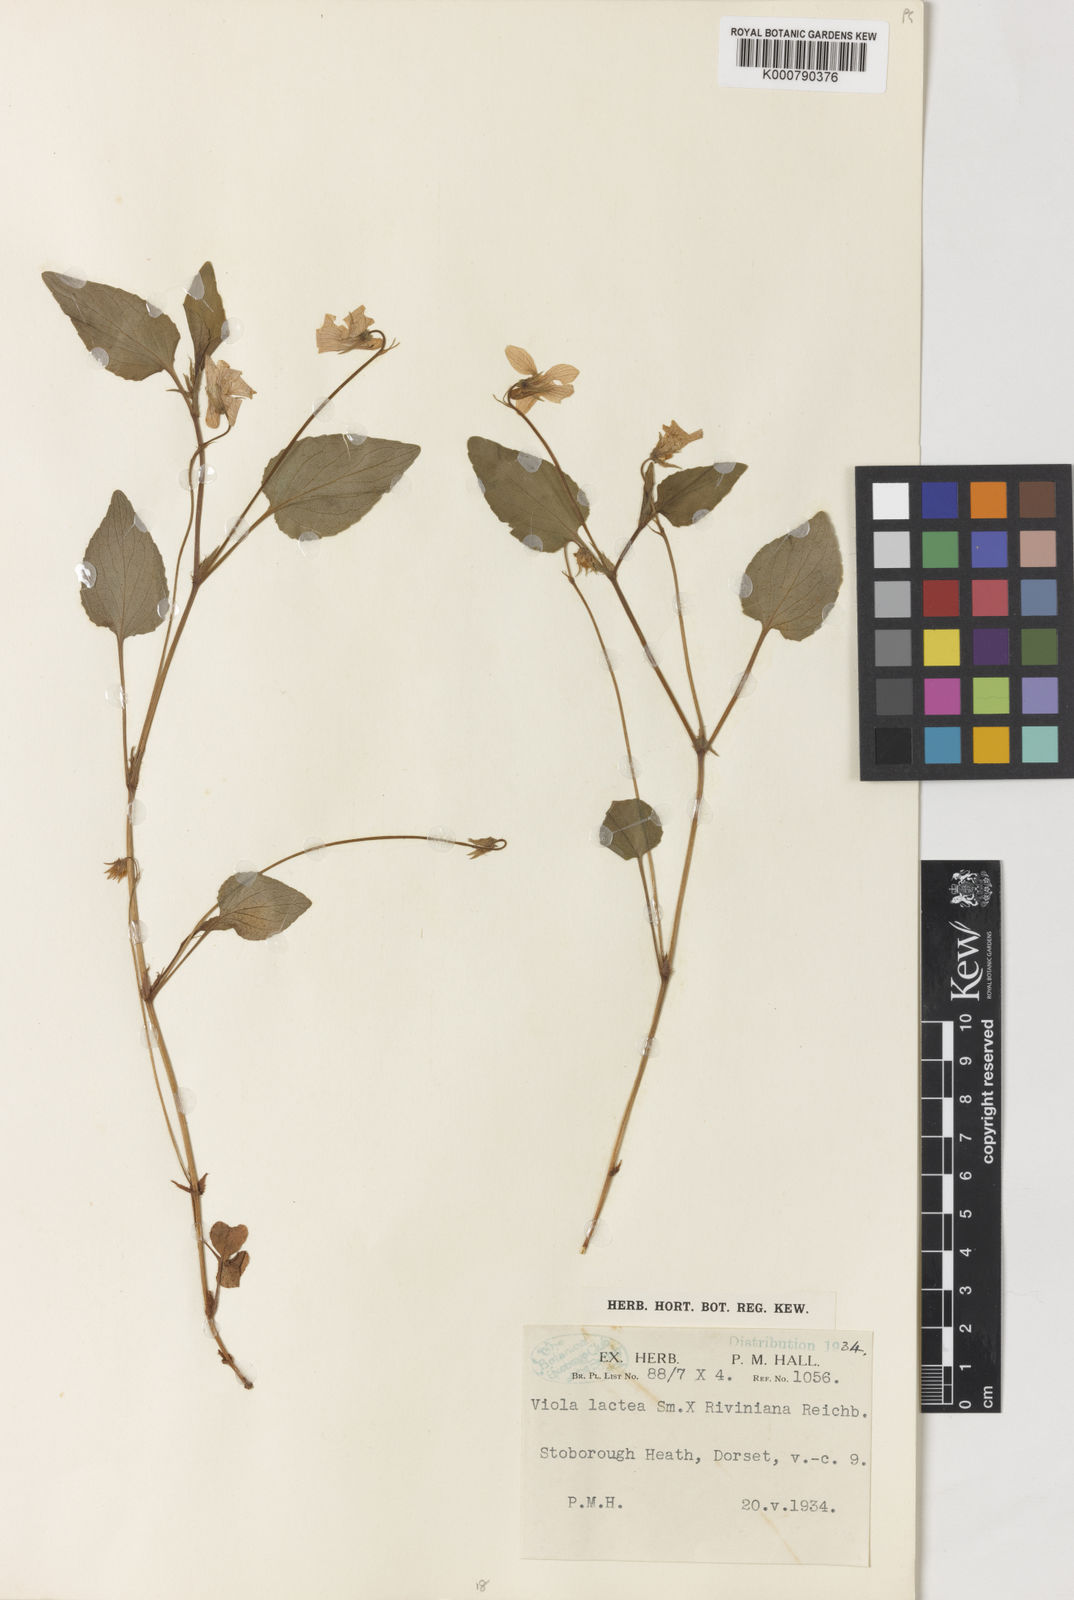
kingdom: Plantae
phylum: Tracheophyta
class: Magnoliopsida
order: Malpighiales
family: Violaceae
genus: Viola
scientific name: Viola lactea
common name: Pale dog-violet
